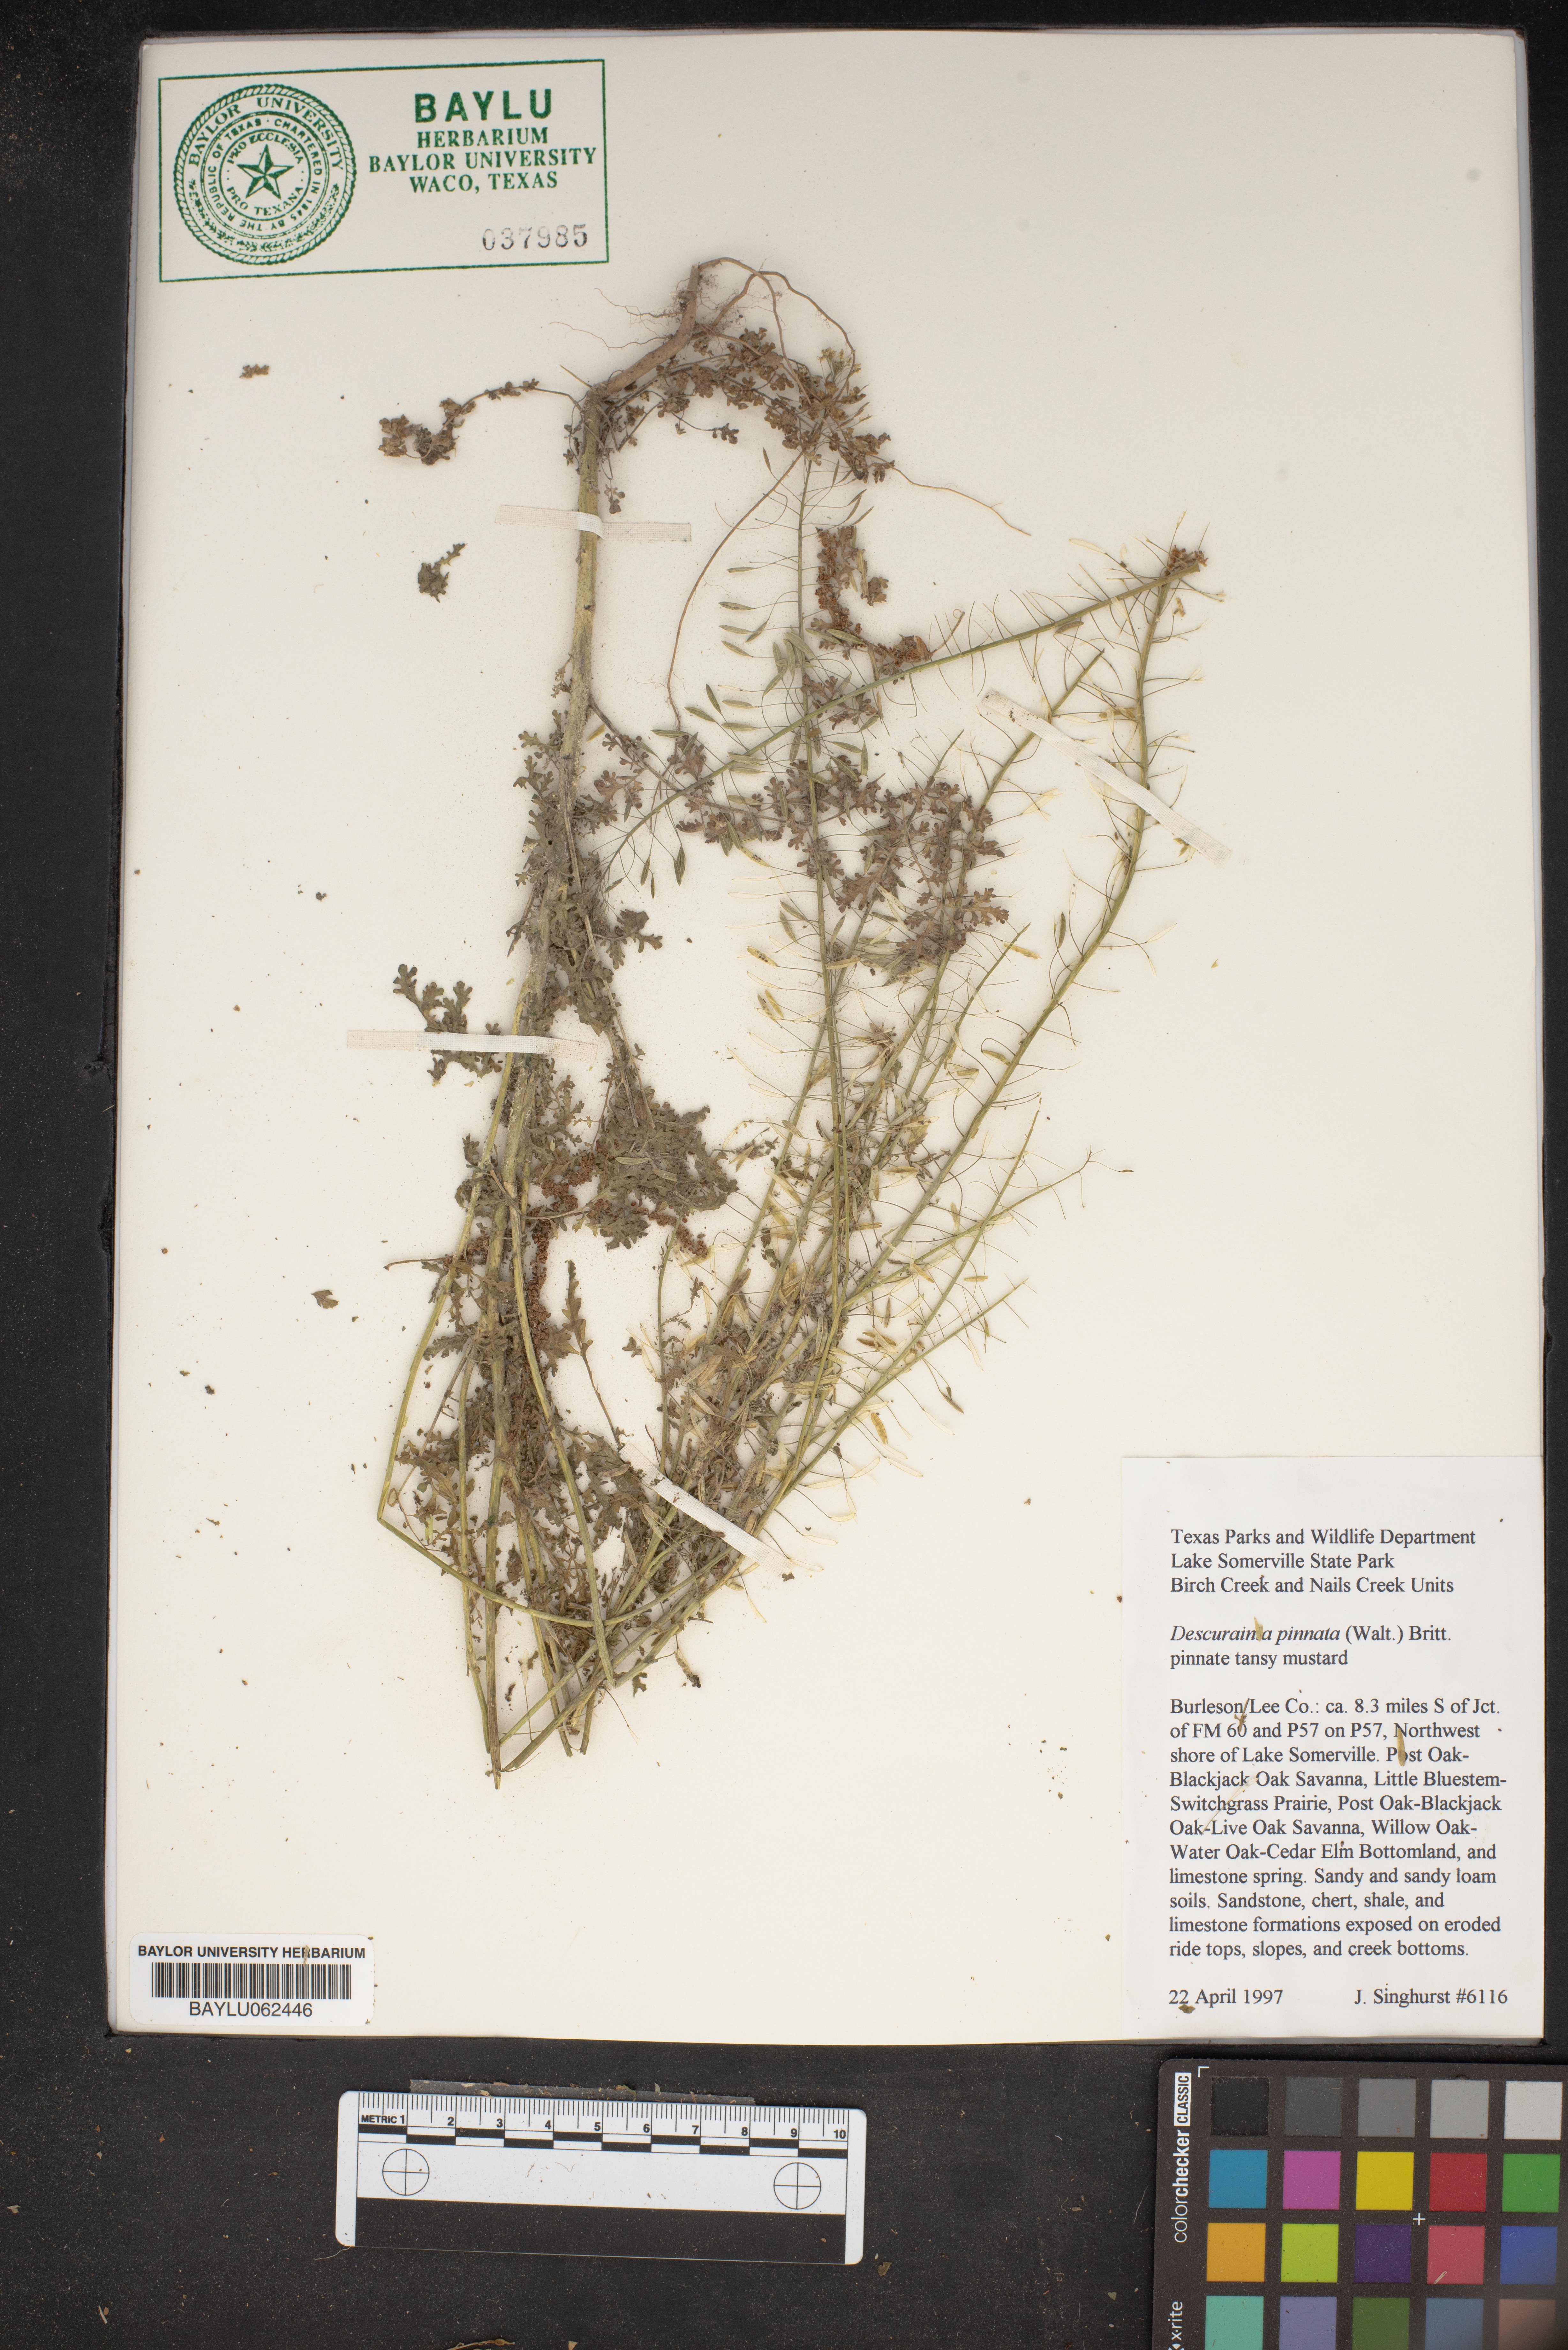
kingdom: Plantae
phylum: Tracheophyta
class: Magnoliopsida
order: Brassicales
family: Brassicaceae
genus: Descurainia
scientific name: Descurainia pinnata
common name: Western tansy mustard
